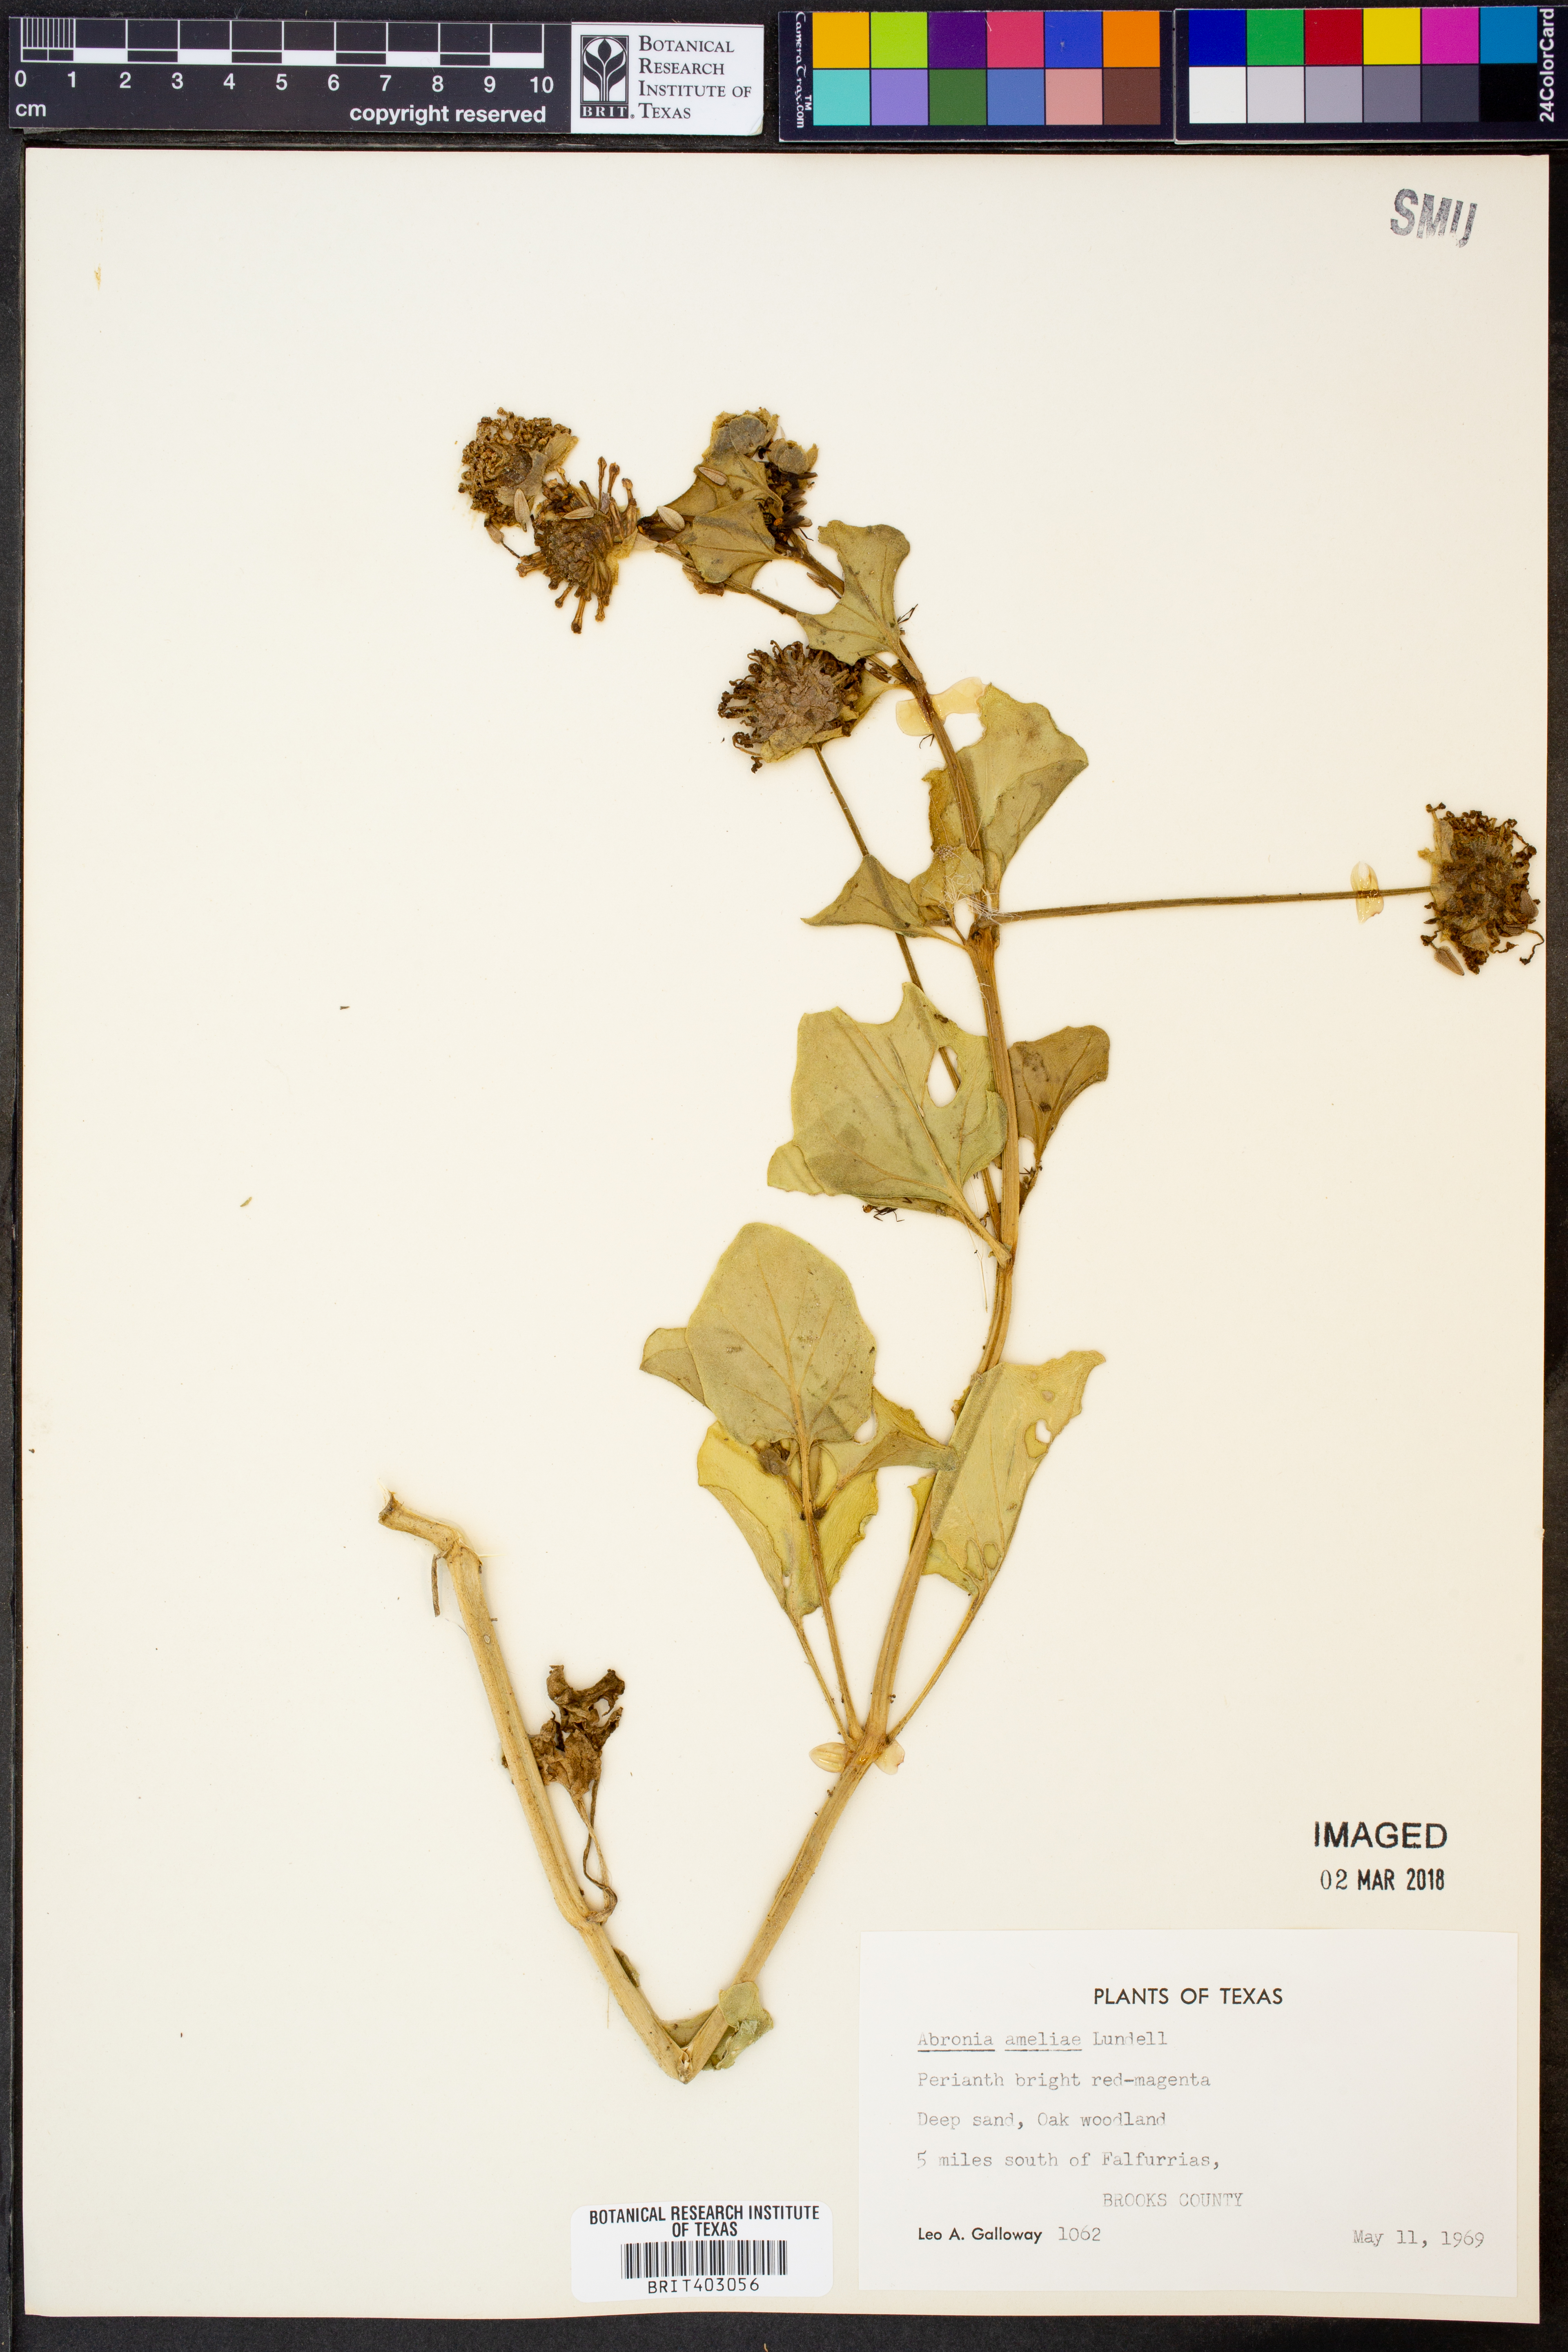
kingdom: Plantae
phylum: Tracheophyta
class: Magnoliopsida
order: Caryophyllales
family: Nyctaginaceae
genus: Abronia
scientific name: Abronia ameliae
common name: Amelia's sand-verbena
